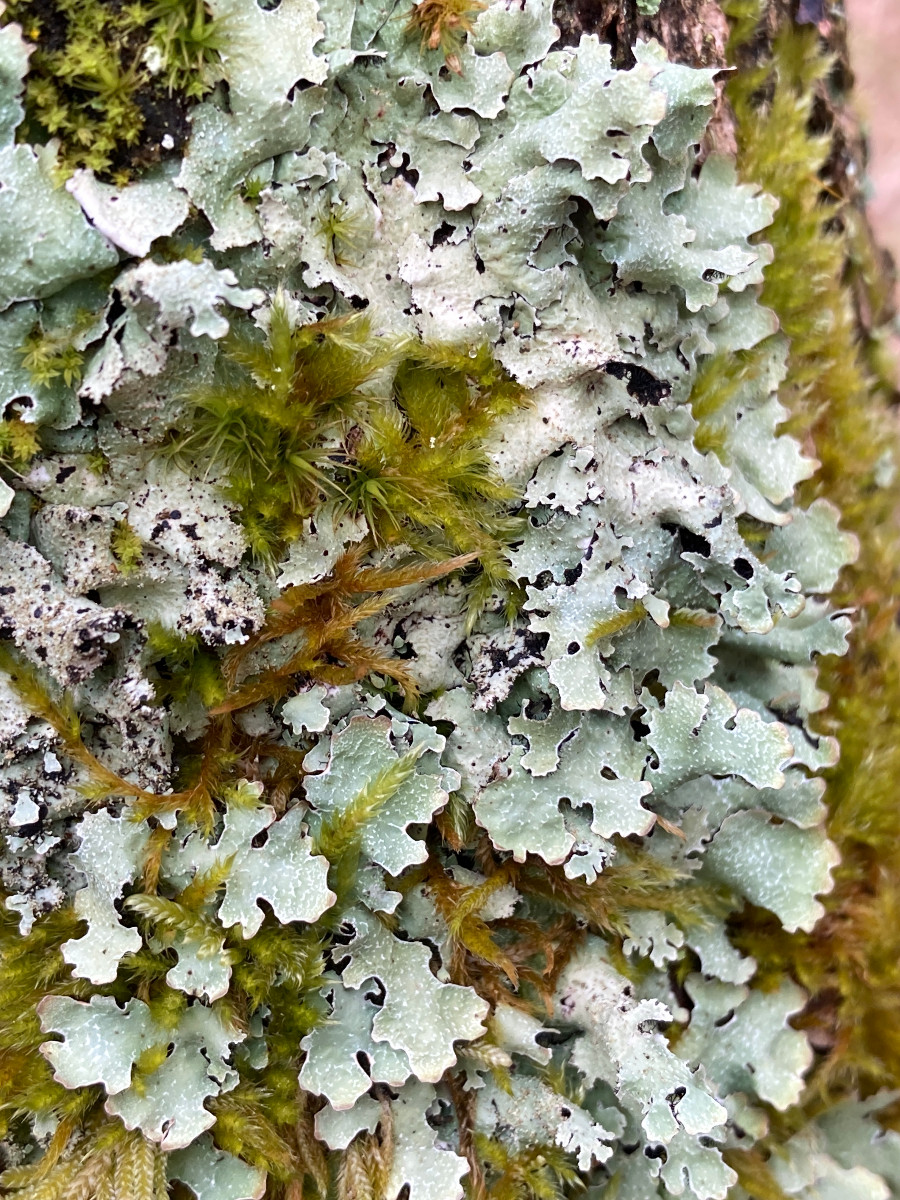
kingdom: Fungi
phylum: Ascomycota
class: Lecanoromycetes
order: Lecanorales
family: Parmeliaceae
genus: Parmelia
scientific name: Parmelia
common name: farve-skållav
